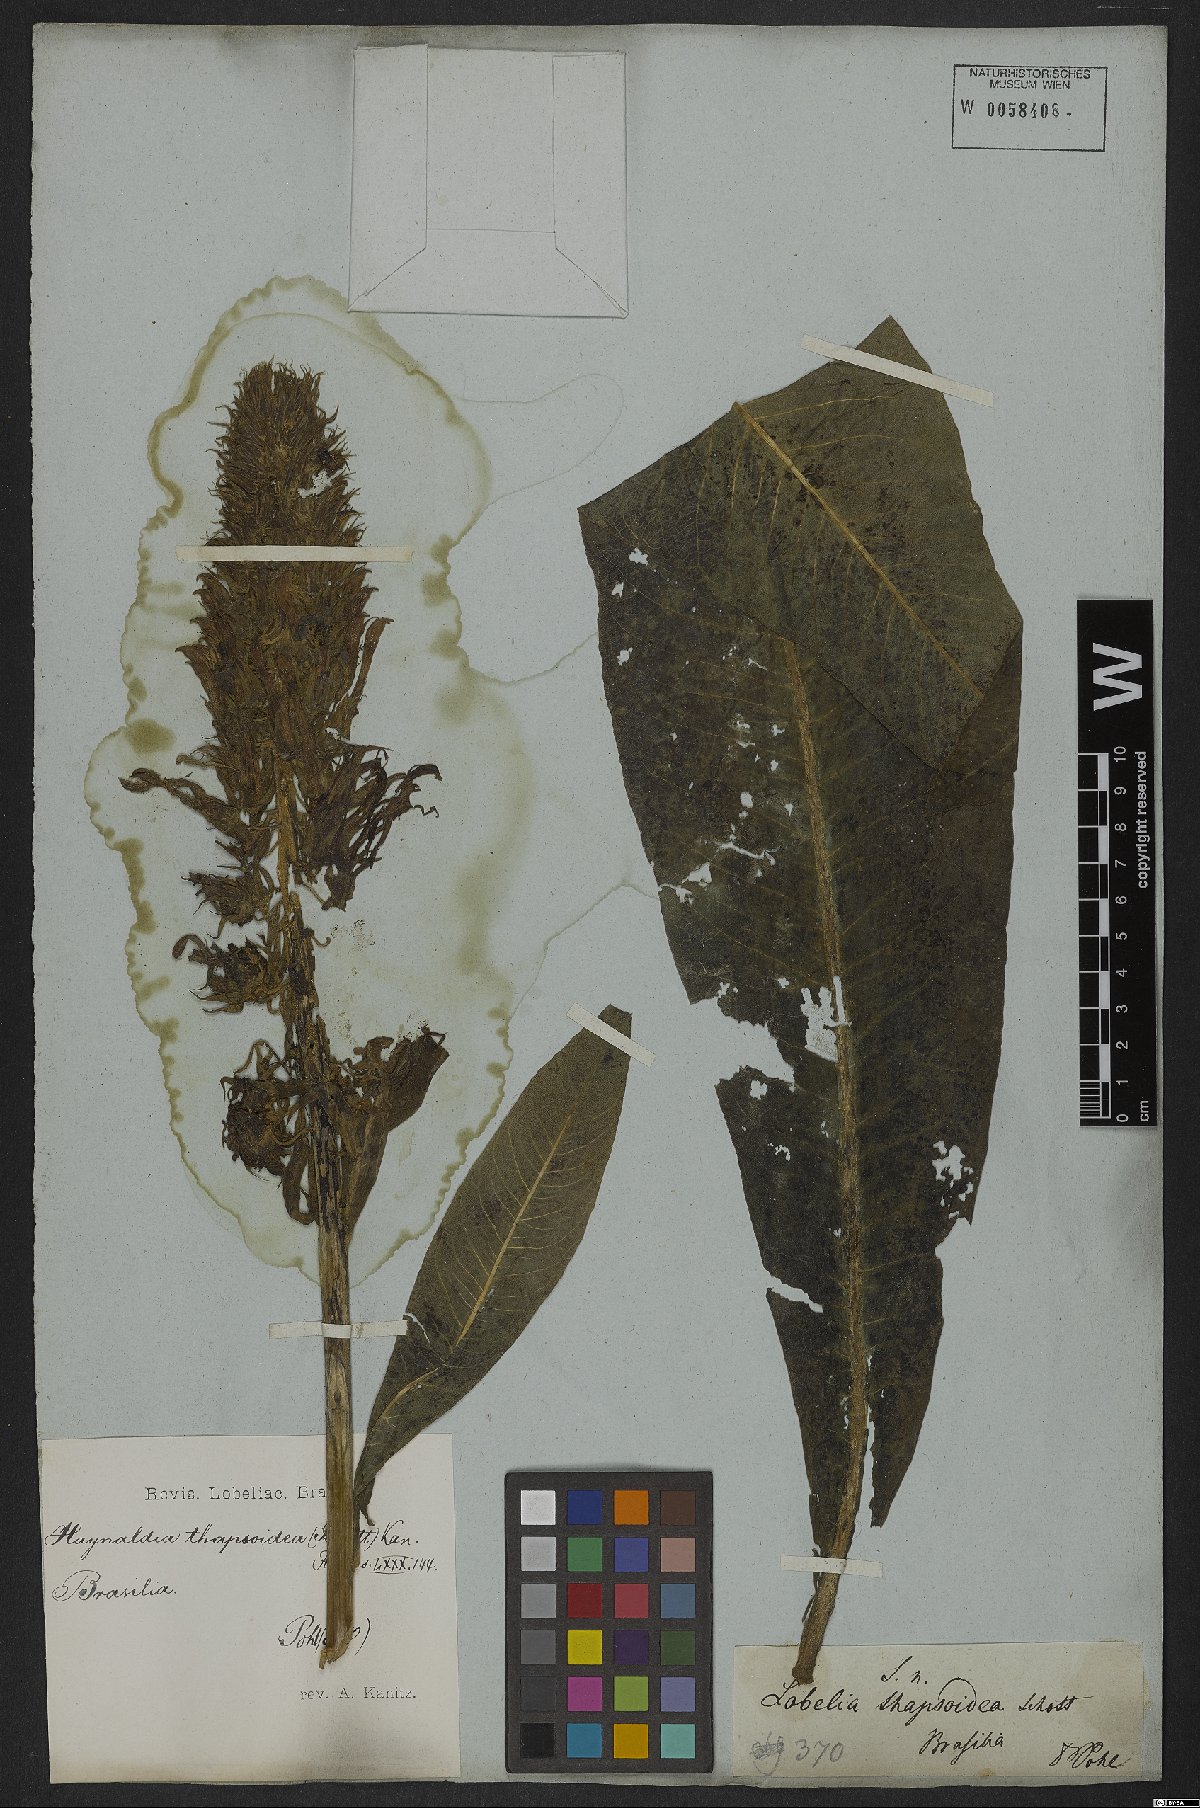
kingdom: Plantae
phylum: Tracheophyta
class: Magnoliopsida
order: Asterales
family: Campanulaceae
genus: Lobelia
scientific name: Lobelia thapsoidea
